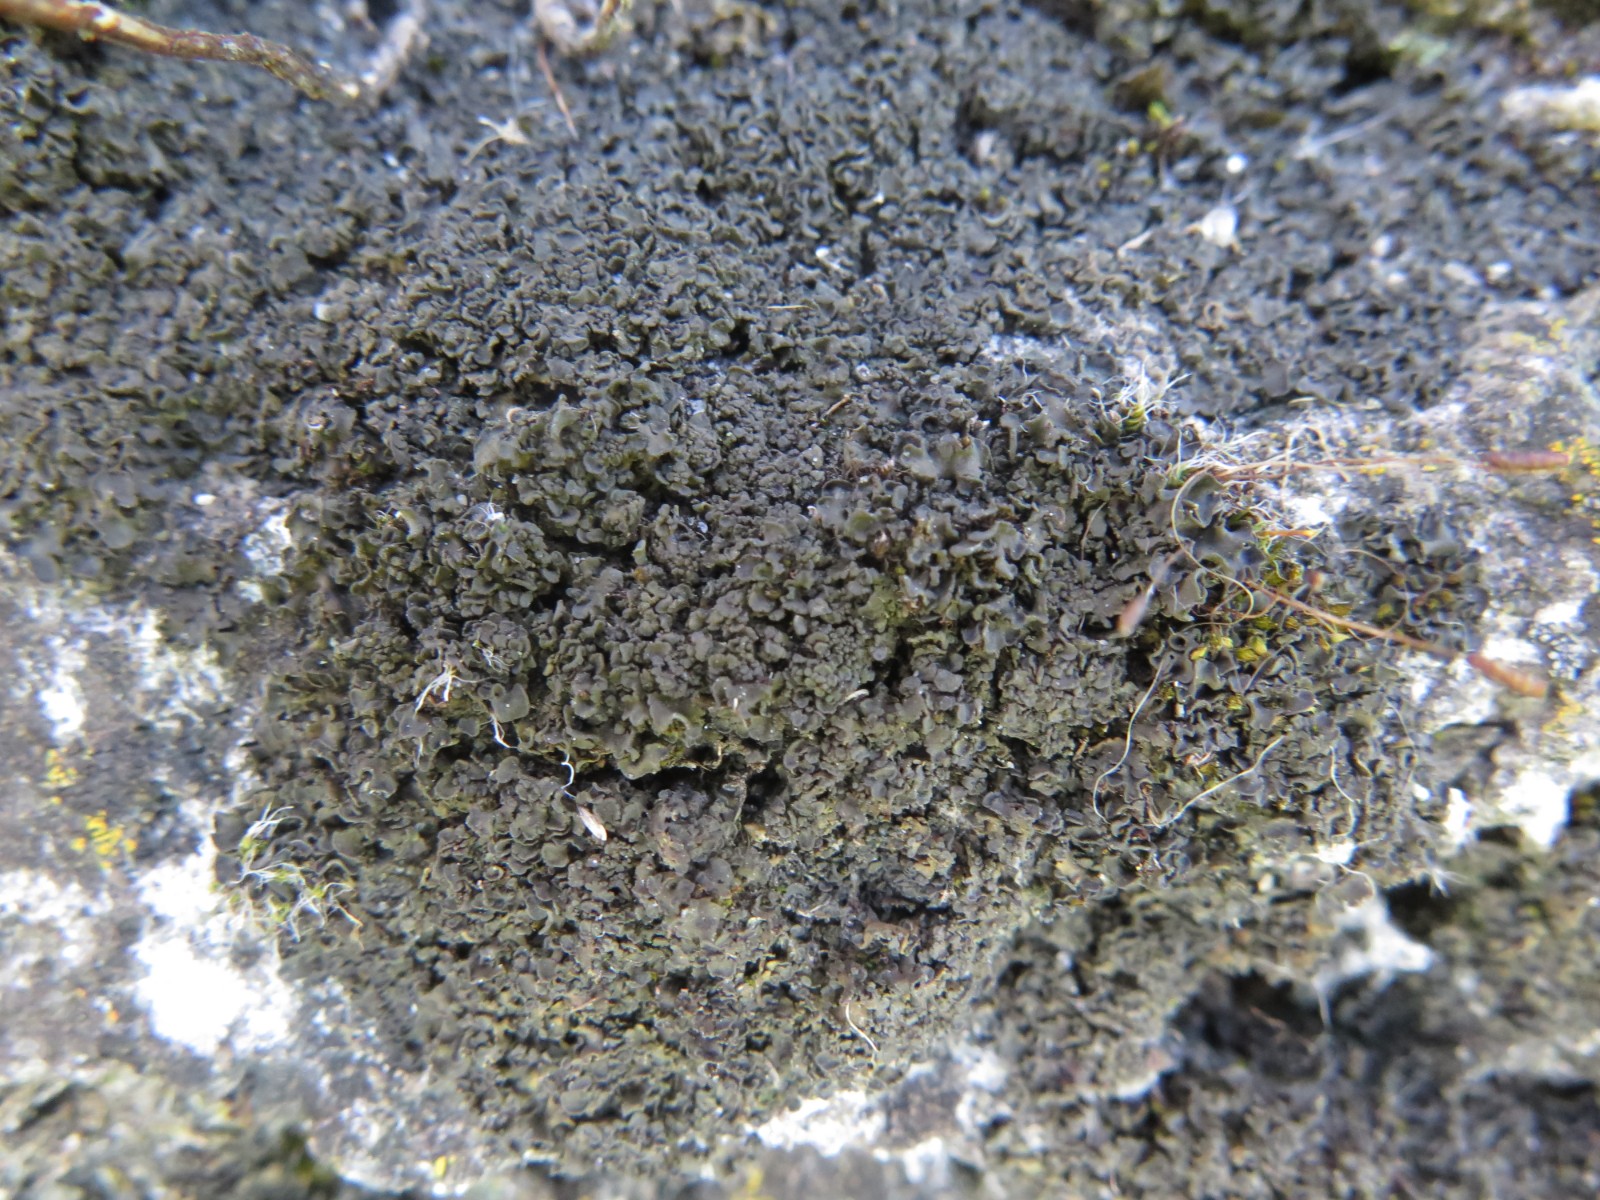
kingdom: Fungi
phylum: Ascomycota
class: Lecanoromycetes
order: Peltigerales
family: Collemataceae
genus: Blennothallia
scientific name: Blennothallia crispa
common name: kruset bævrelav
